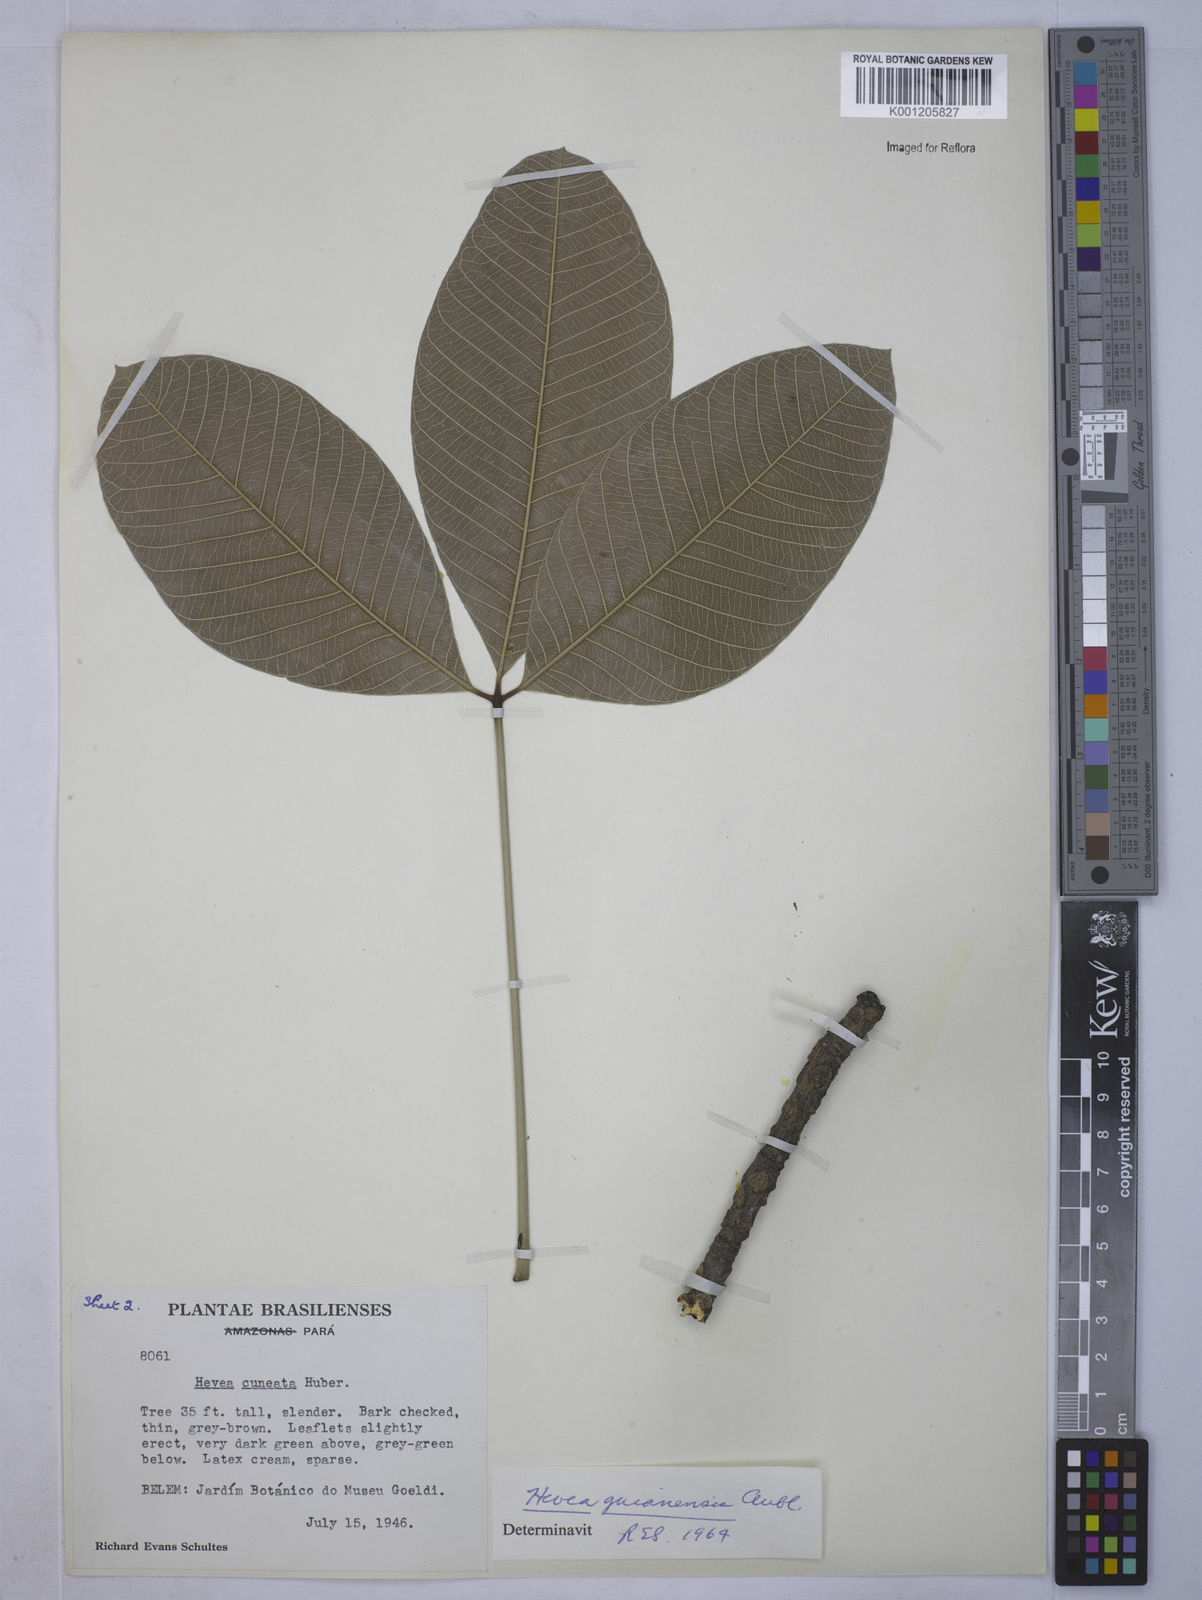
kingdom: Plantae
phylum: Tracheophyta
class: Magnoliopsida
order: Malpighiales
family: Euphorbiaceae
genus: Hevea
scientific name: Hevea guianensis
